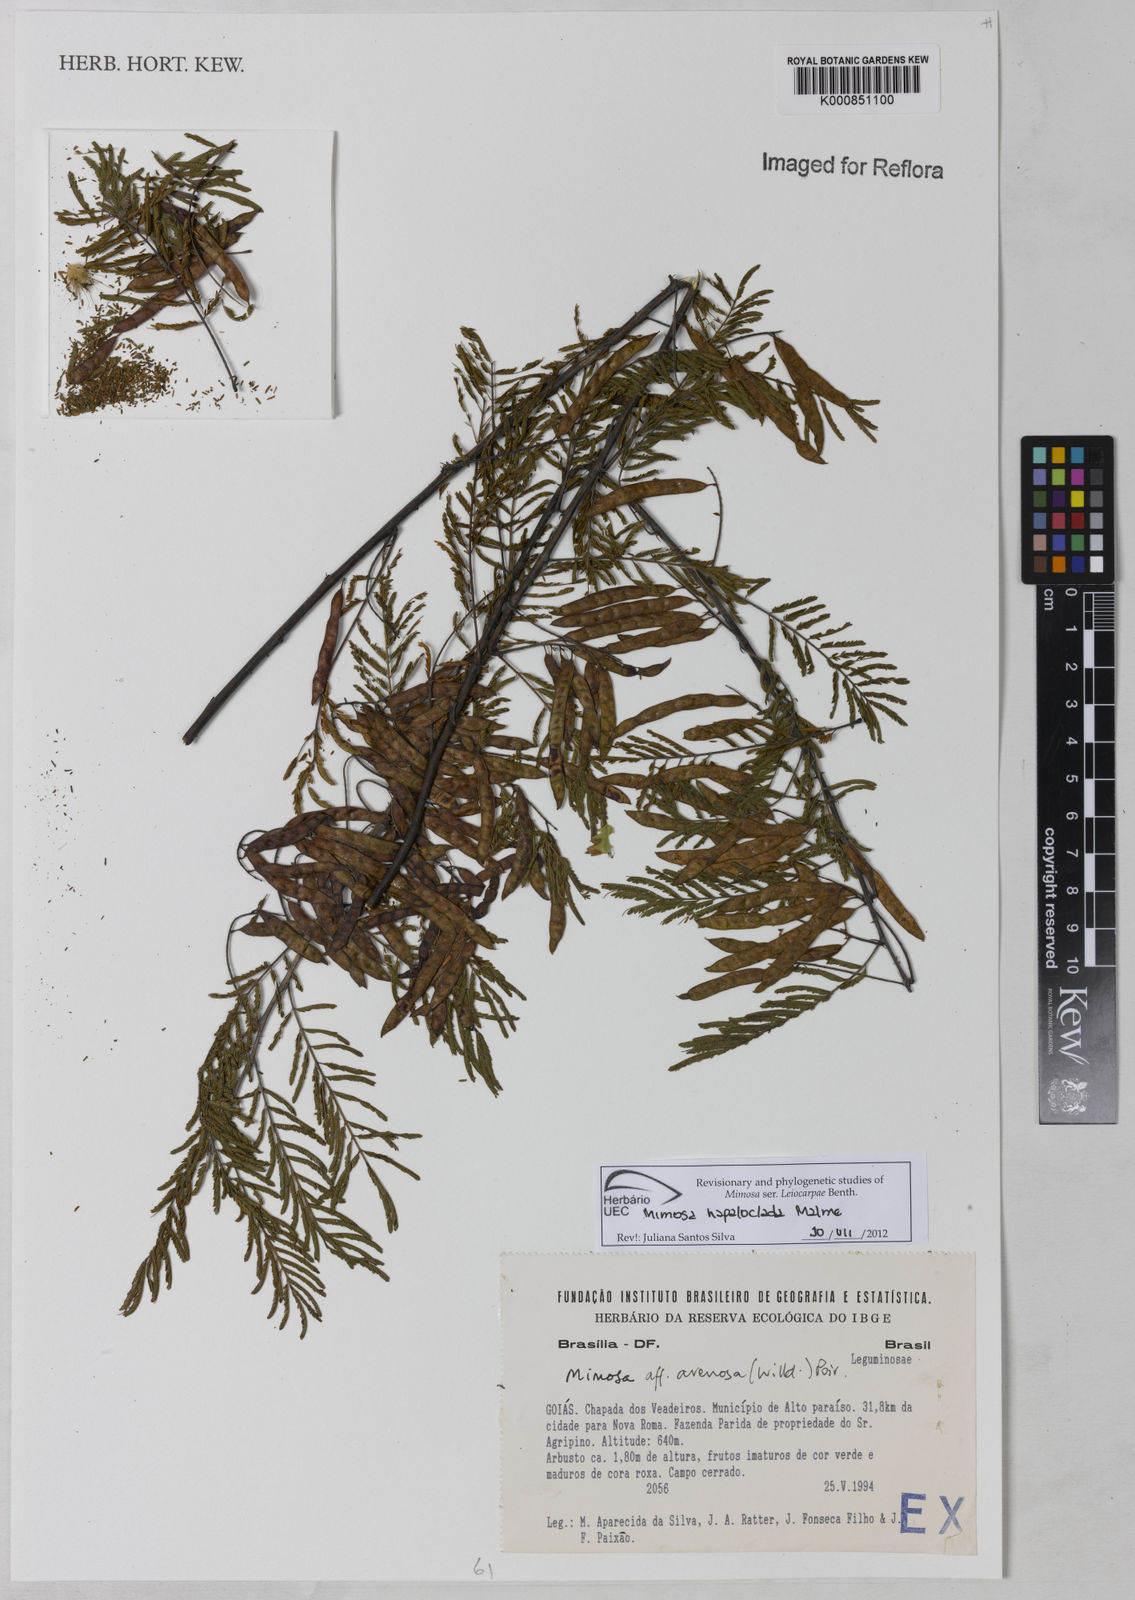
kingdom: Plantae
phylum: Tracheophyta
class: Magnoliopsida
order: Fabales
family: Fabaceae
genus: Mimosa
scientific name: Mimosa hapaloclada
